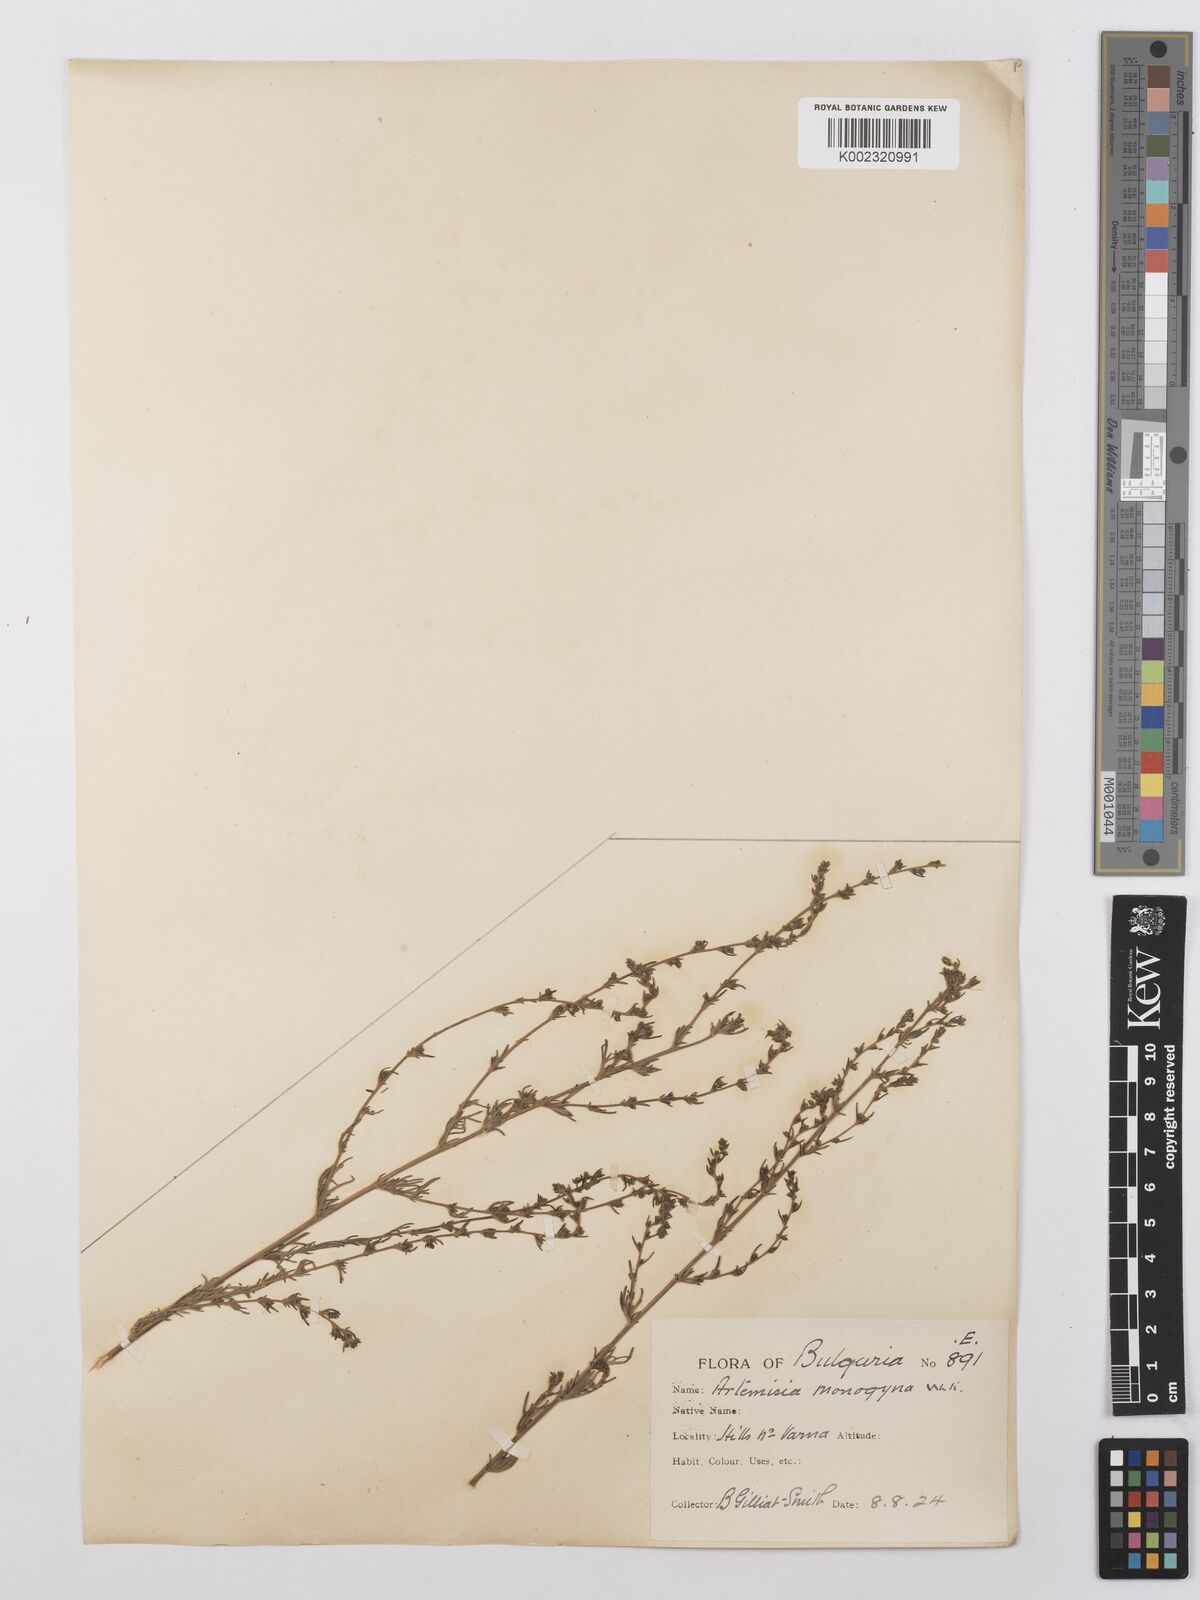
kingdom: Plantae
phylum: Tracheophyta
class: Magnoliopsida
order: Asterales
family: Asteraceae
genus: Artemisia
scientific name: Artemisia santonicum
